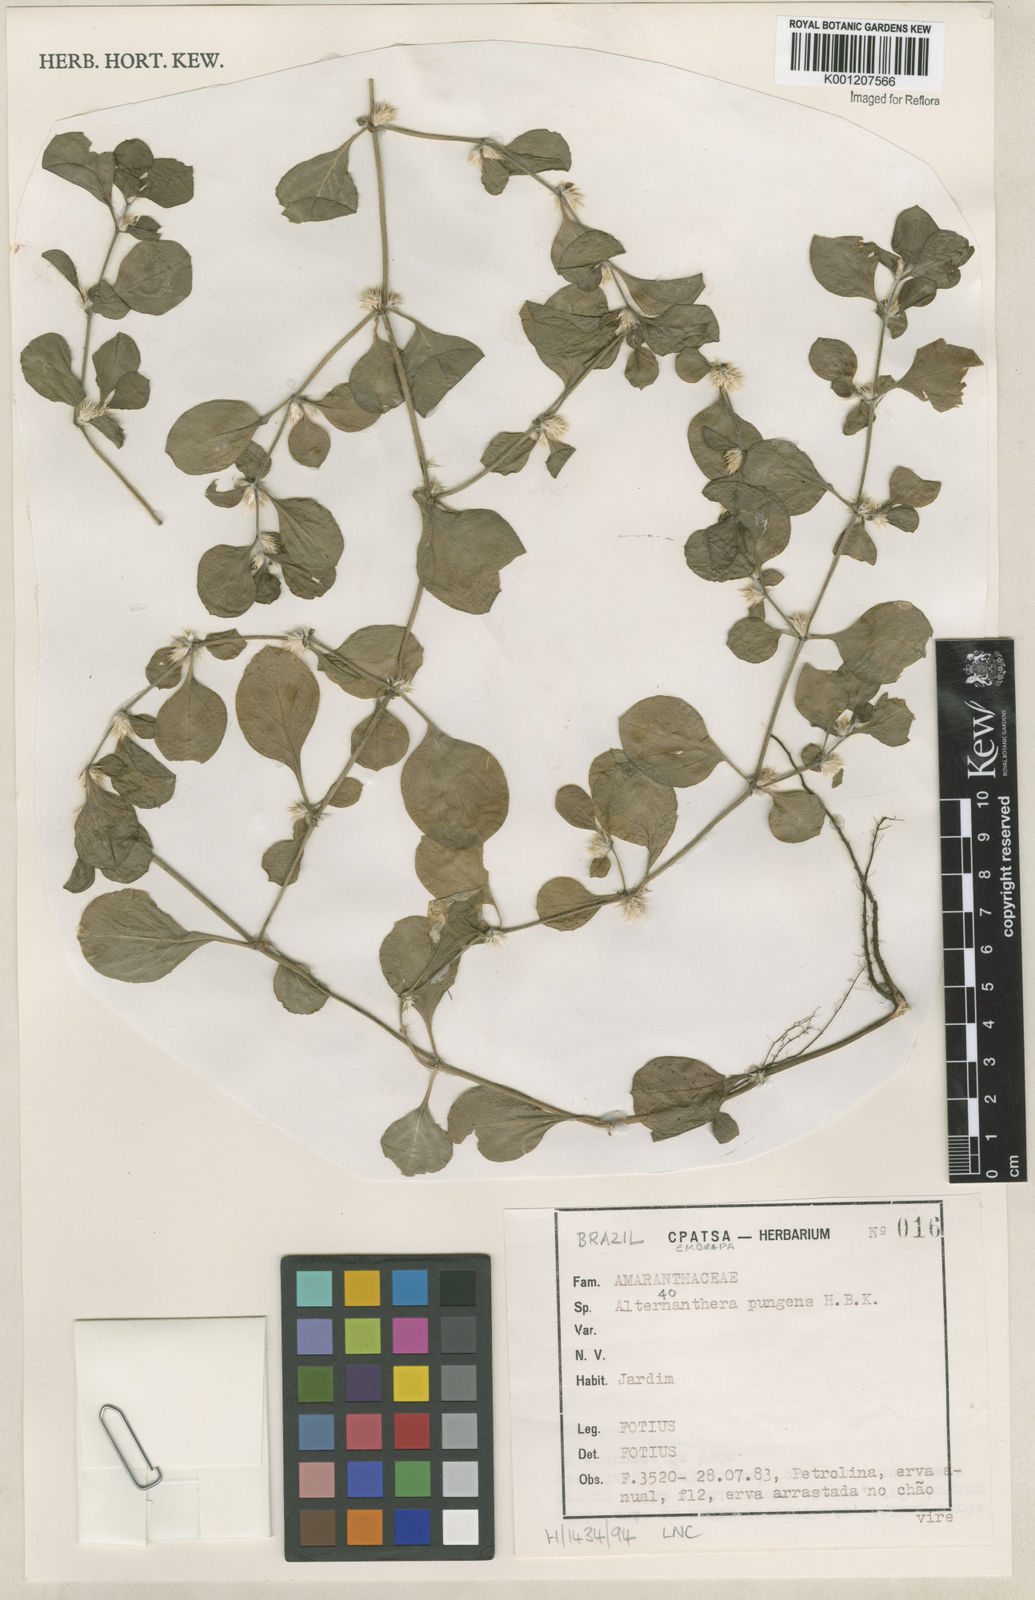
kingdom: Plantae
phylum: Tracheophyta
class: Magnoliopsida
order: Caryophyllales
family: Amaranthaceae
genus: Alternanthera
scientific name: Alternanthera pungens
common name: Khakiweed
